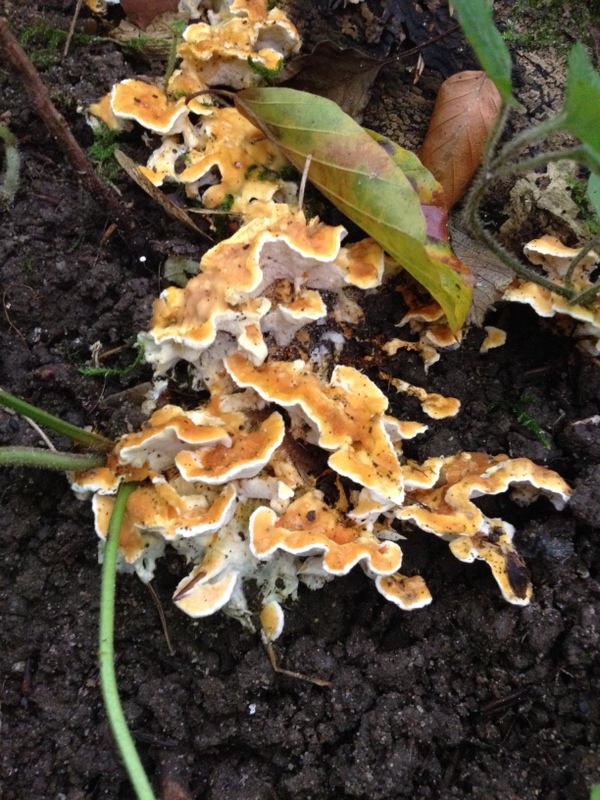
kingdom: Fungi
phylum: Basidiomycota
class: Agaricomycetes
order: Polyporales
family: Steccherinaceae
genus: Loweomyces
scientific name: Loweomyces wynneae
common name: krybende blødporesvamp
